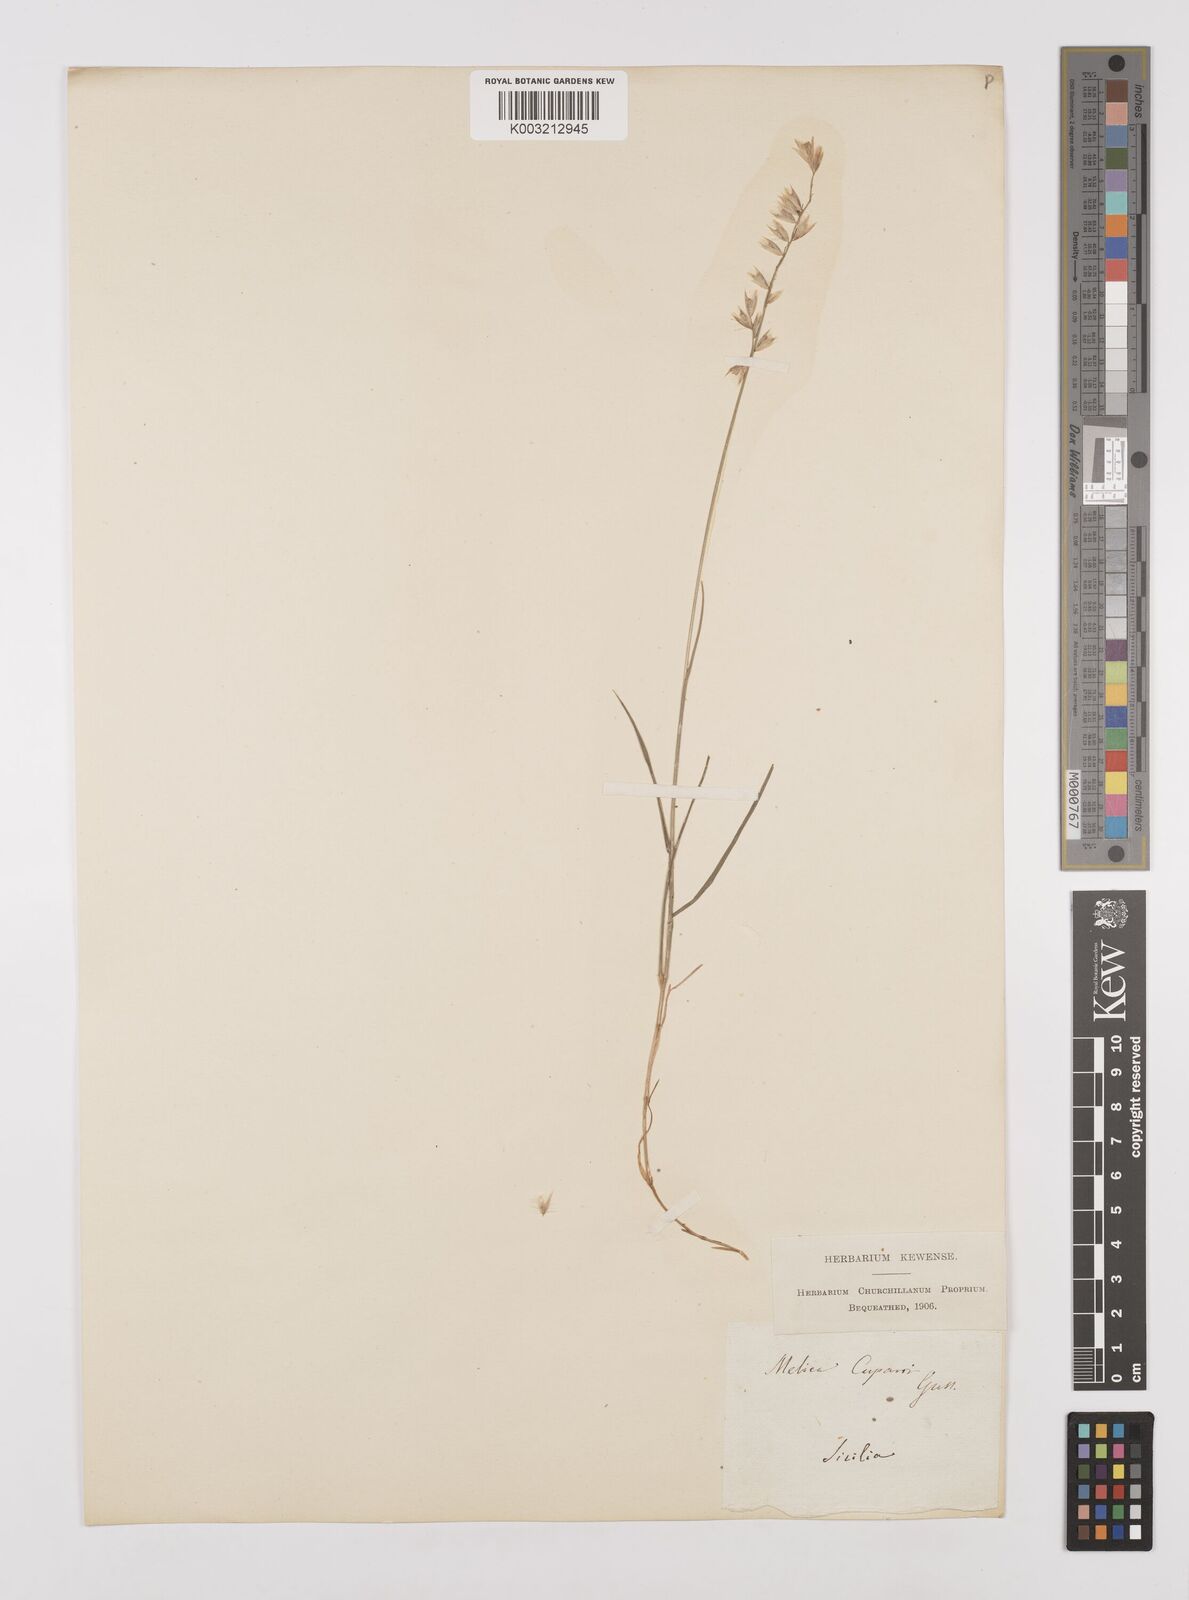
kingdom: Plantae
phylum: Tracheophyta
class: Liliopsida
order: Poales
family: Poaceae
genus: Melica
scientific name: Melica cupani
